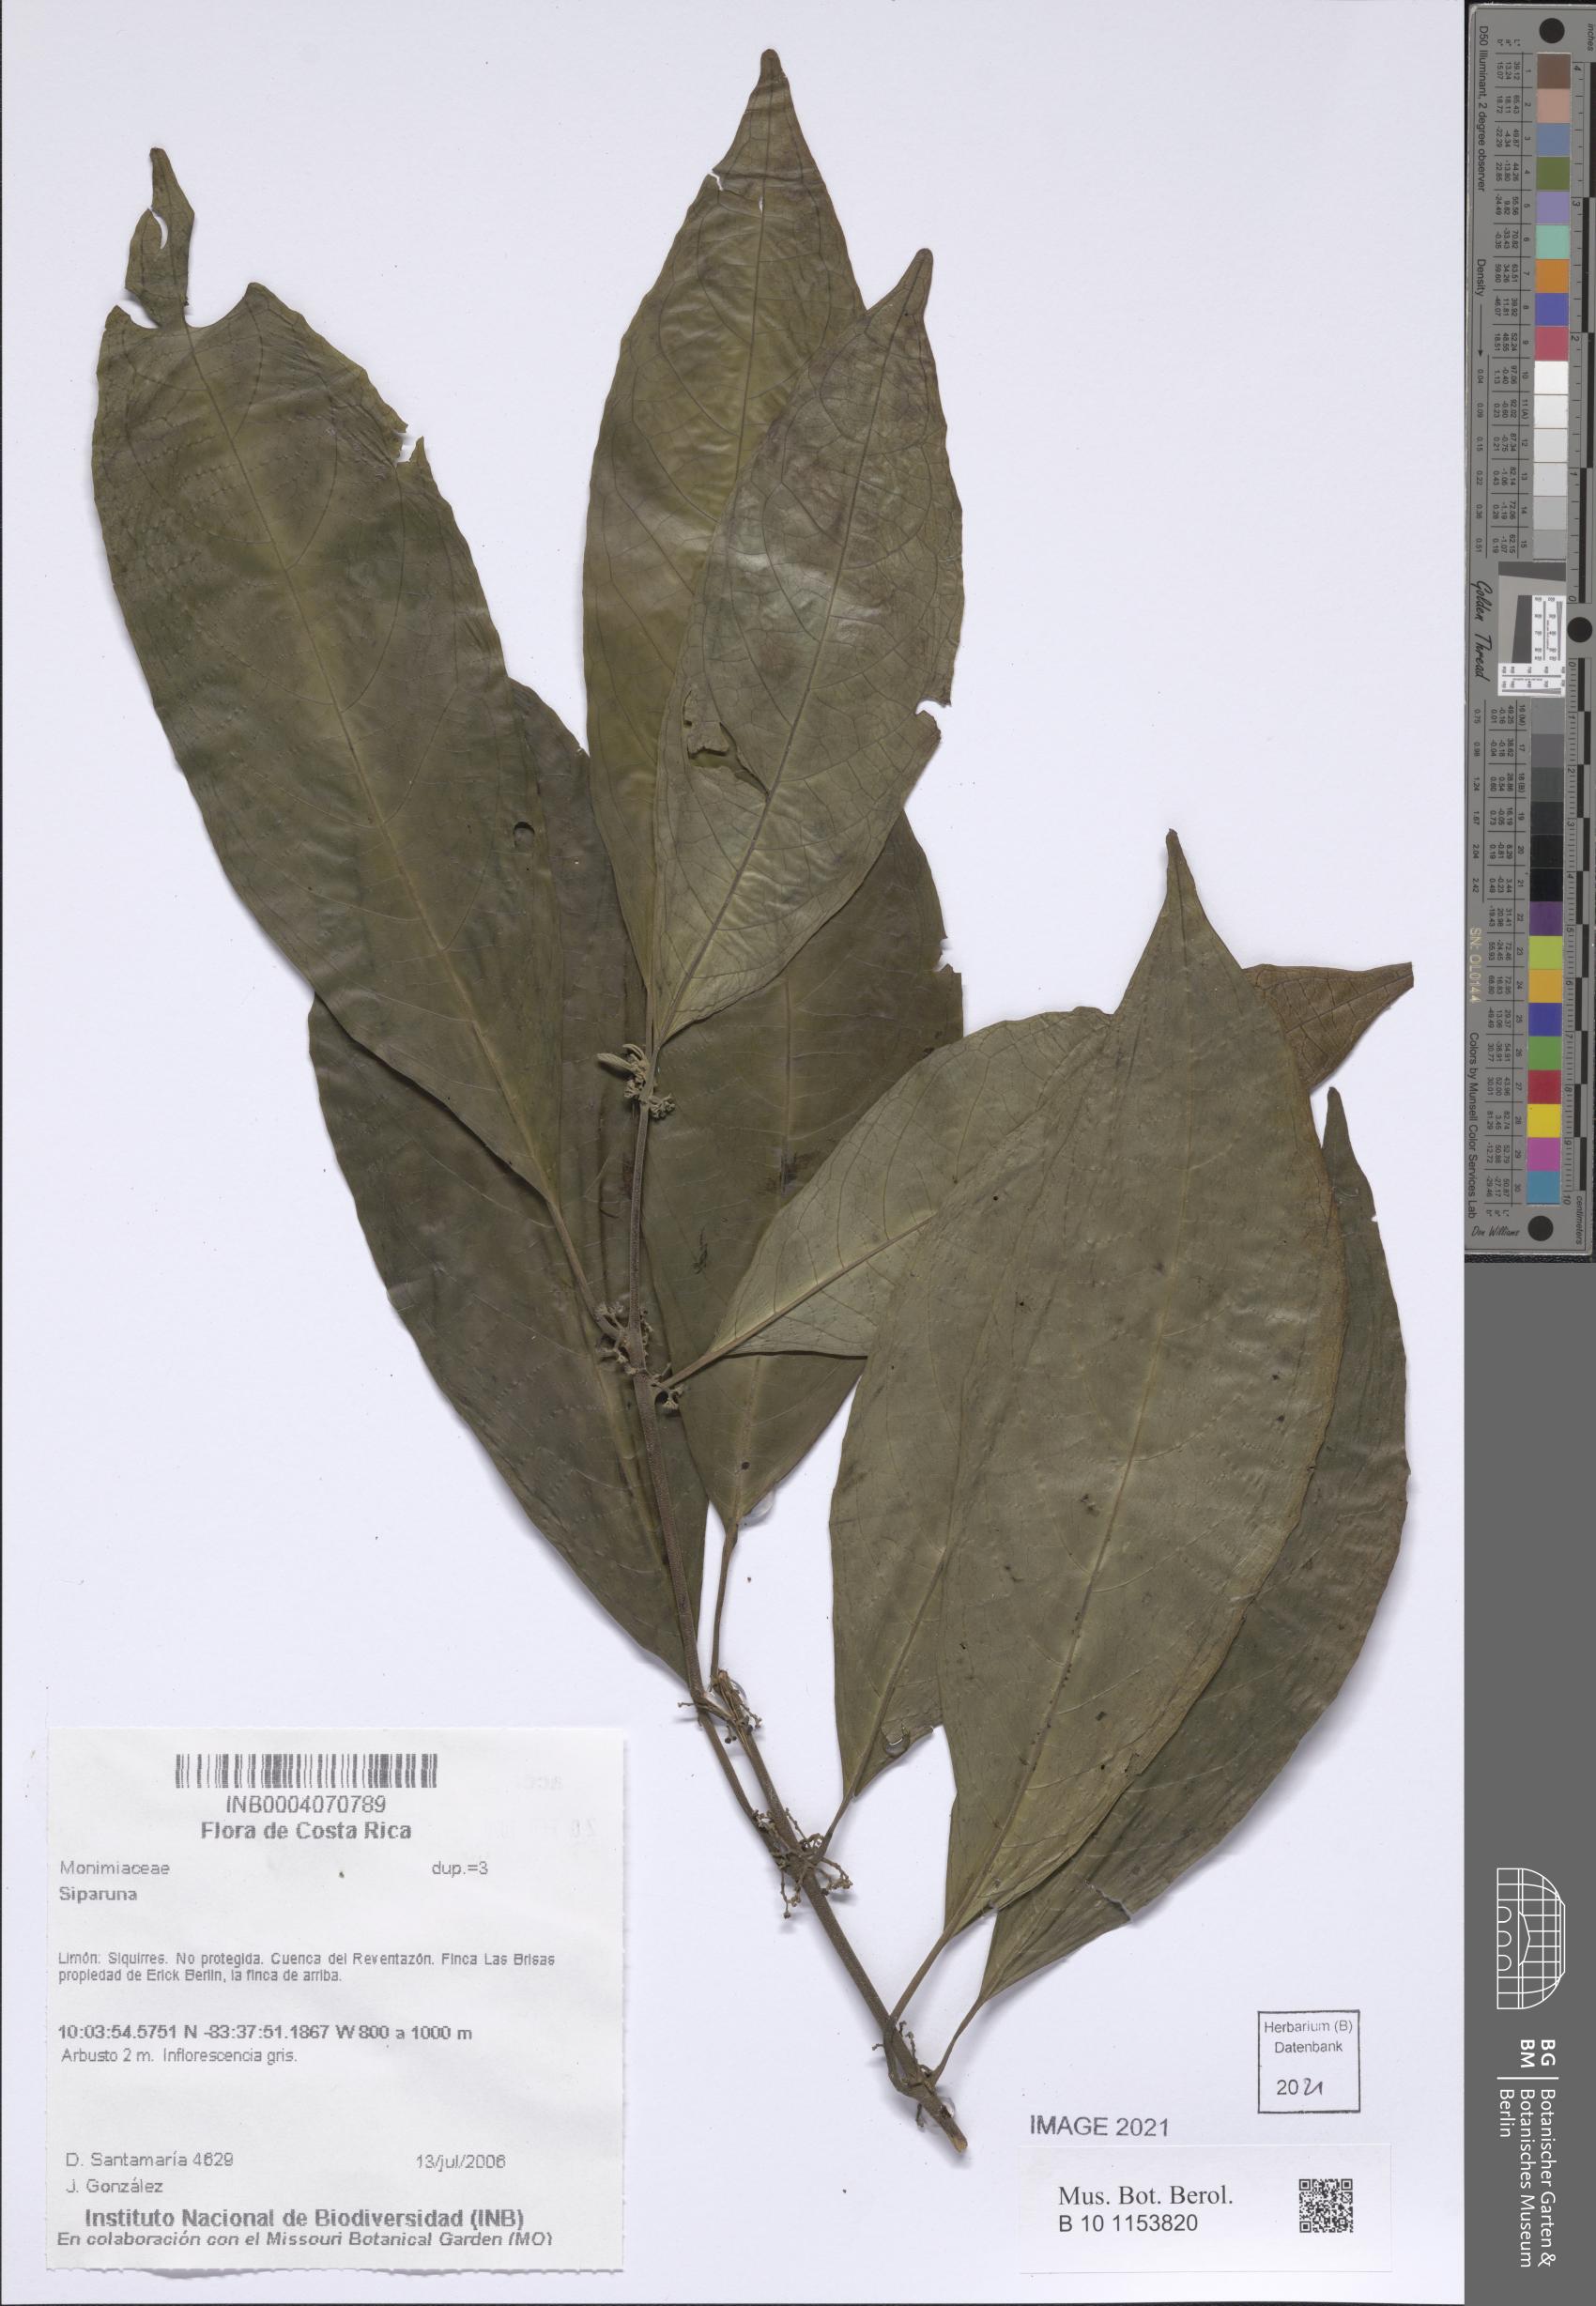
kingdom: Plantae
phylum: Tracheophyta
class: Magnoliopsida
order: Laurales
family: Siparunaceae
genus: Siparuna
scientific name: Siparuna
